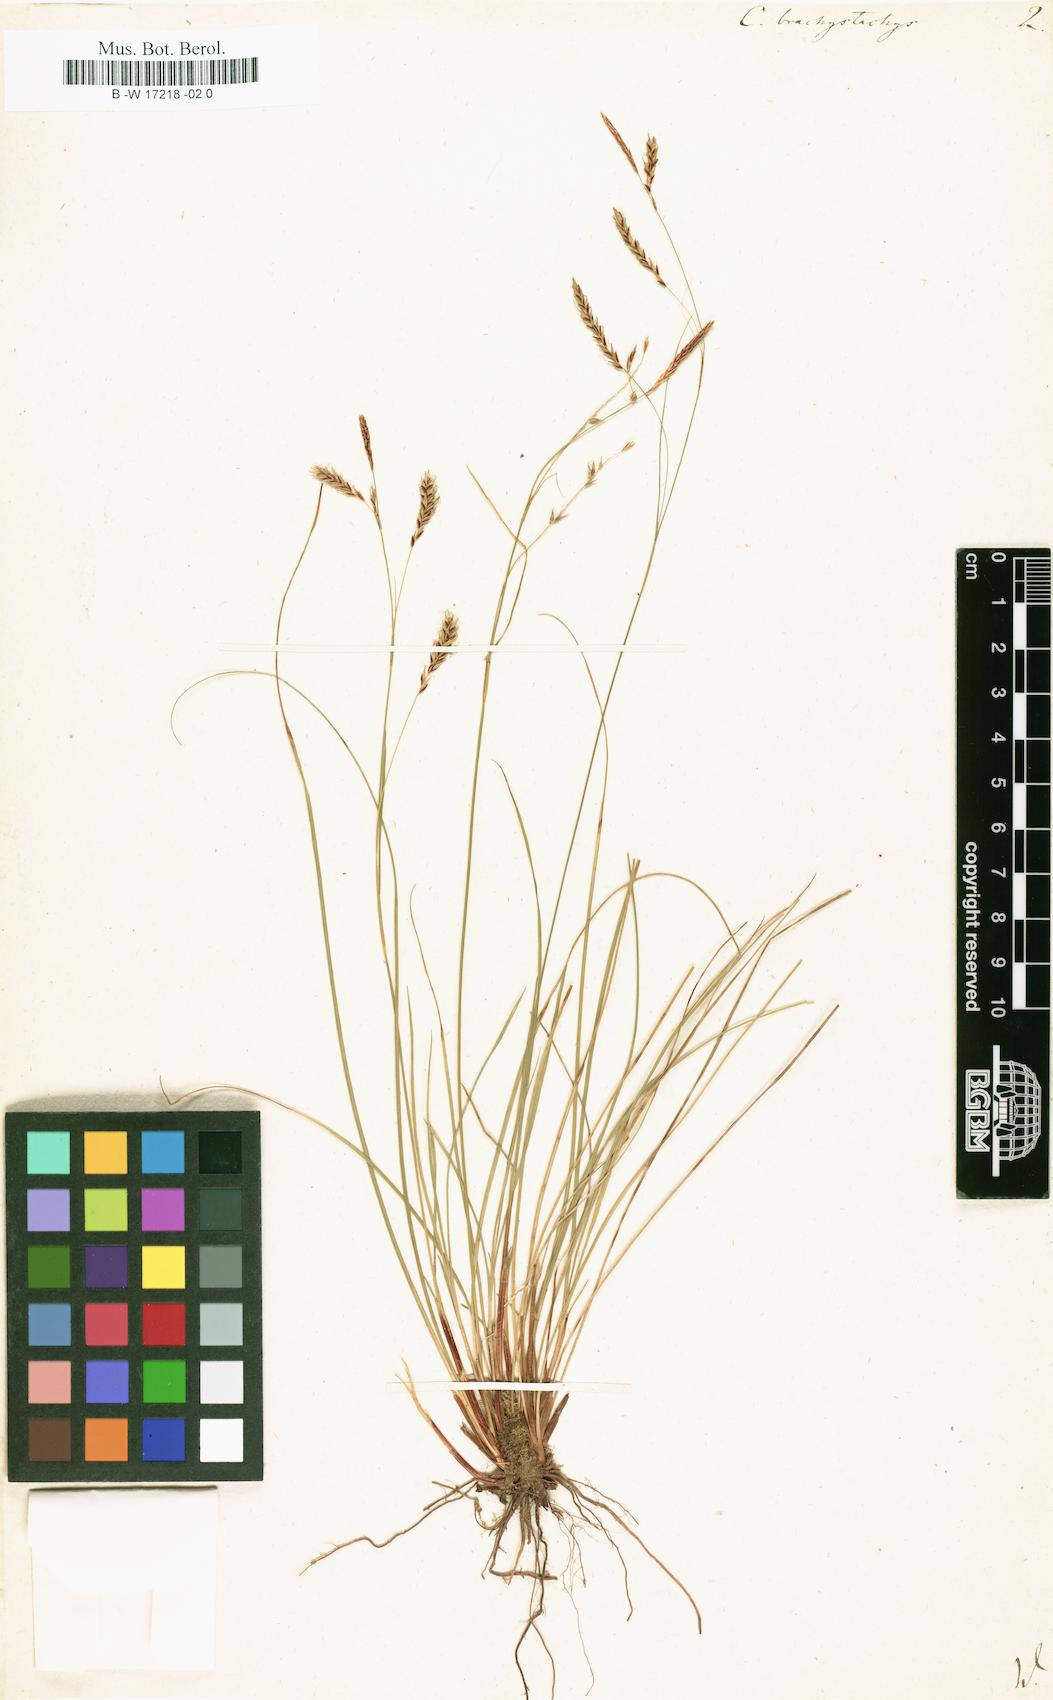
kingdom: Plantae
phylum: Tracheophyta
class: Liliopsida
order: Poales
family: Cyperaceae
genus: Carex
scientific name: Carex brachystachys
